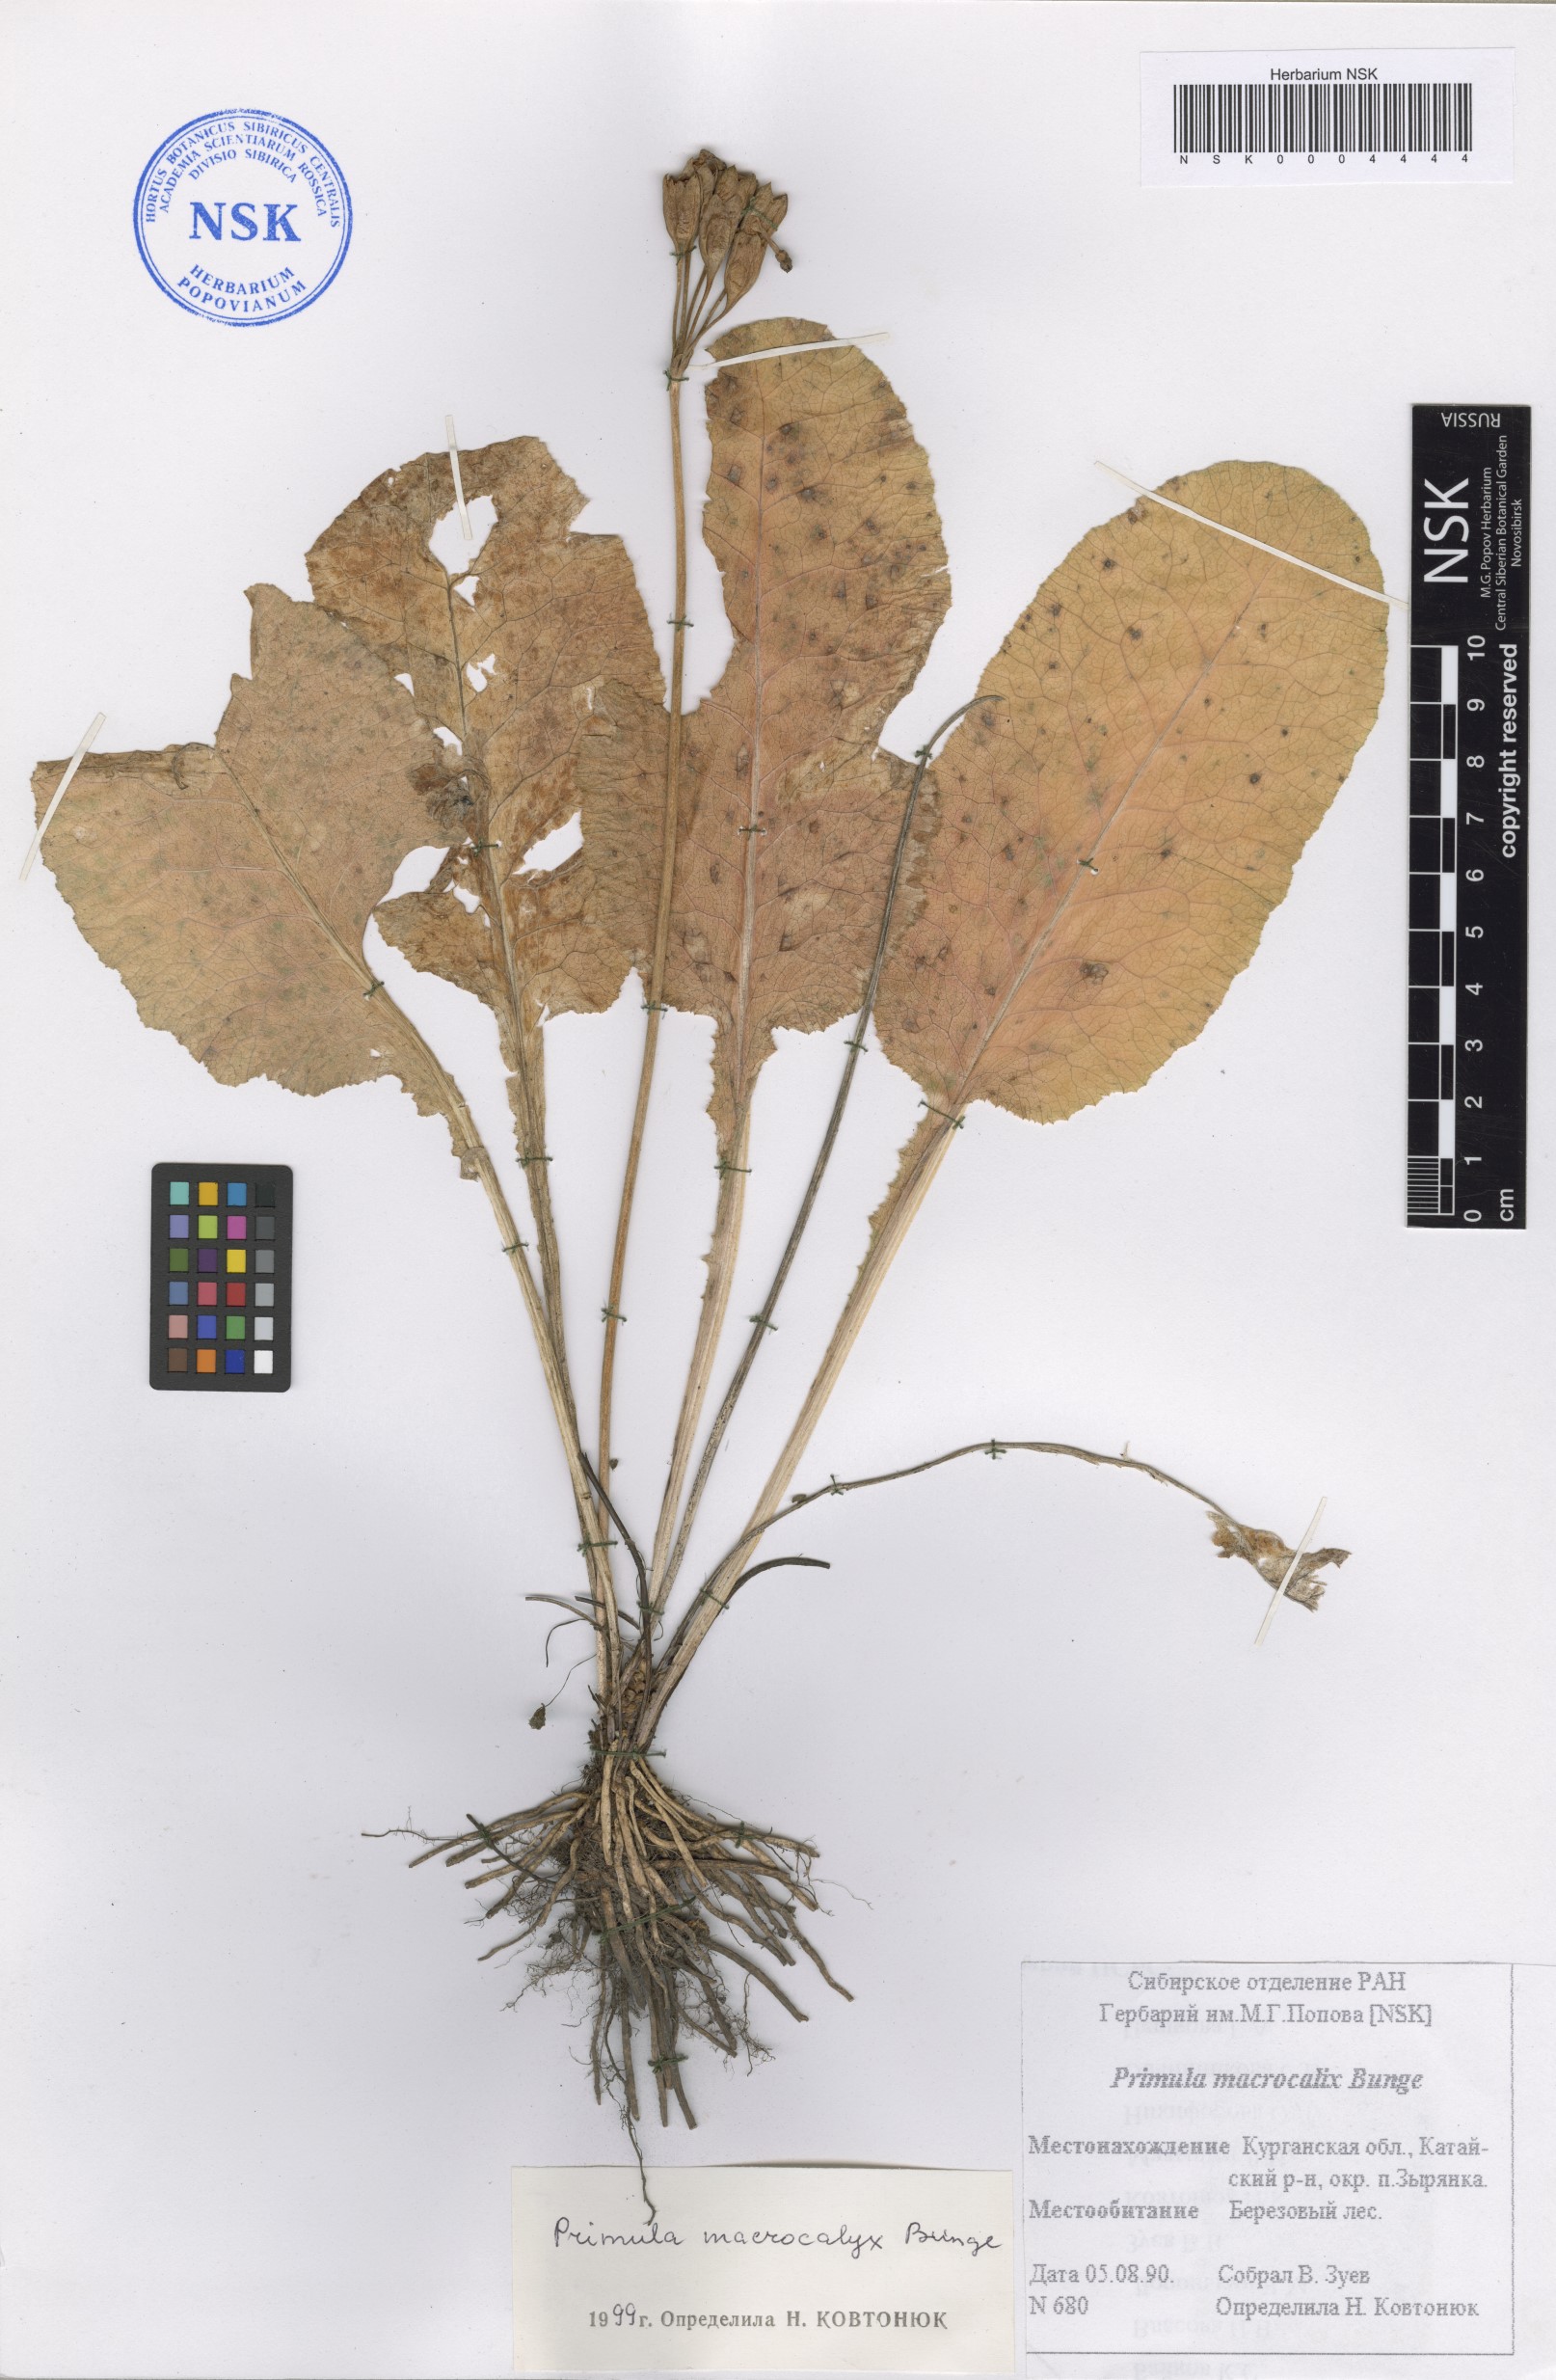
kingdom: Plantae
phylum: Tracheophyta
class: Magnoliopsida
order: Ericales
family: Primulaceae
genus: Primula
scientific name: Primula veris
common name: Cowslip
